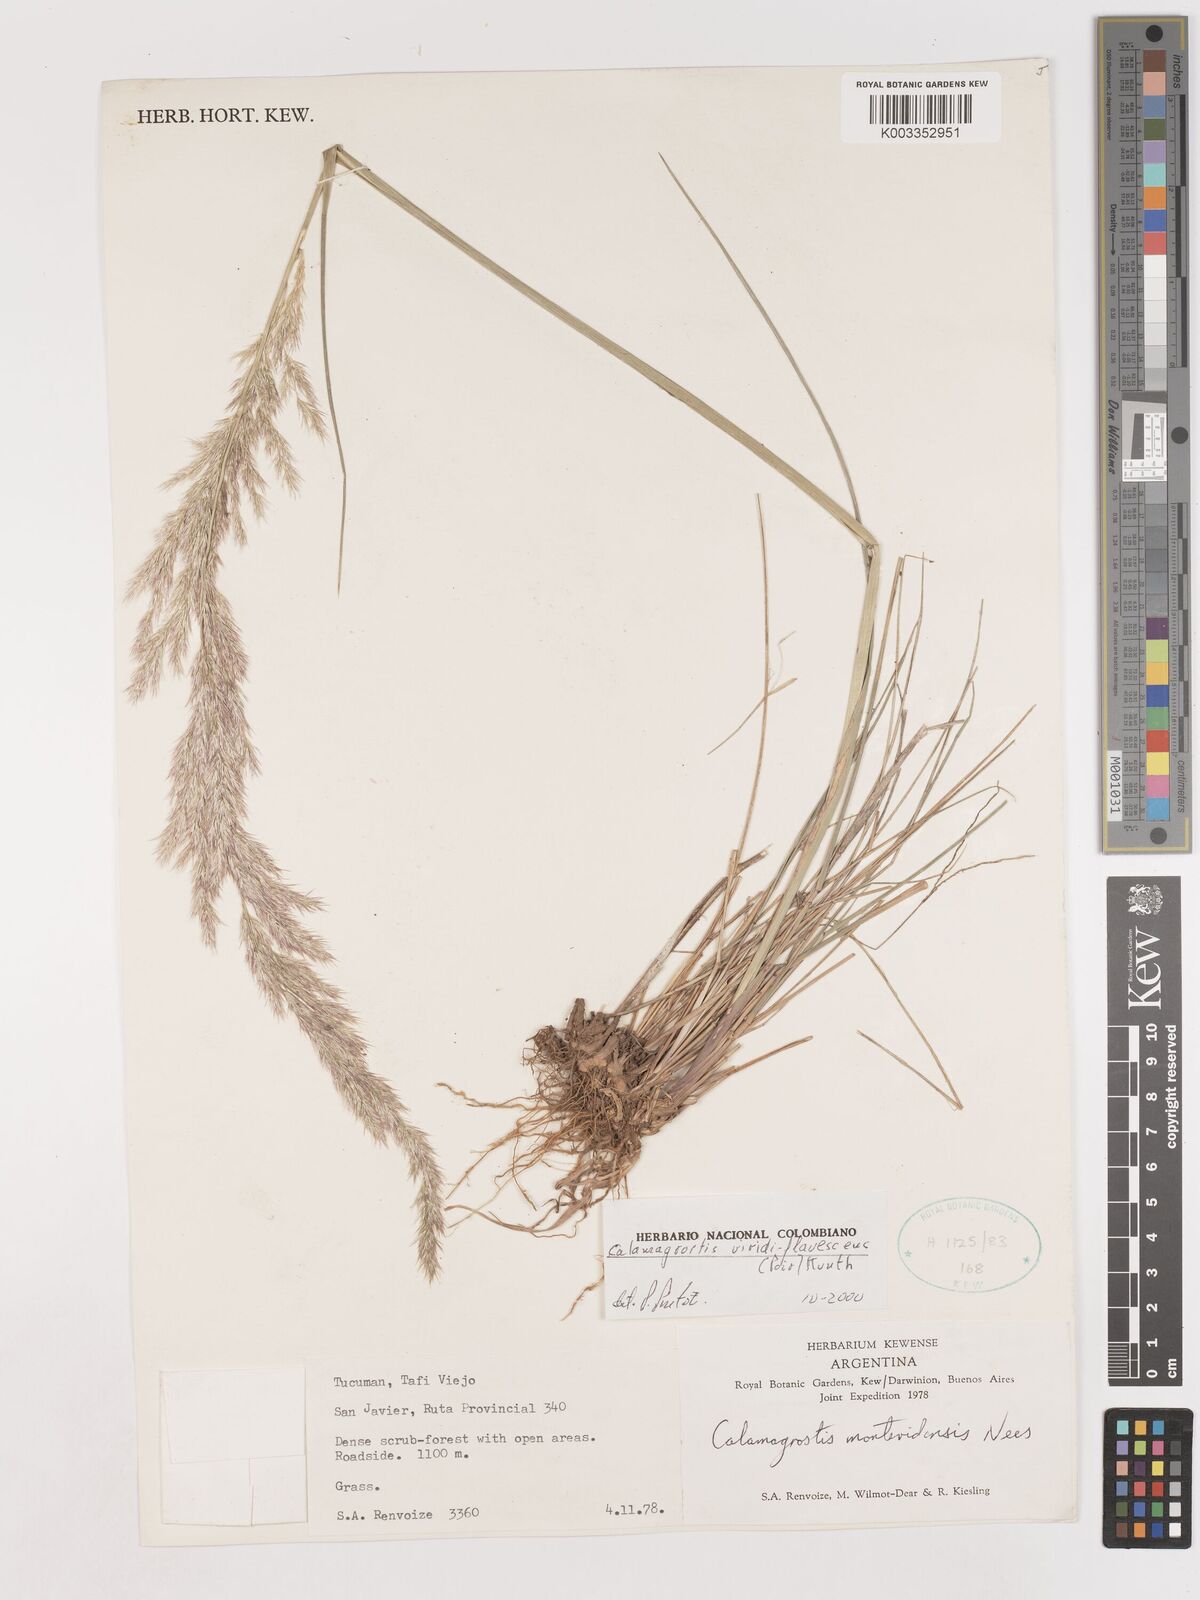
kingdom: Plantae
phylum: Tracheophyta
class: Liliopsida
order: Poales
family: Poaceae
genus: Cinnagrostis
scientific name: Cinnagrostis viridiflavescens
